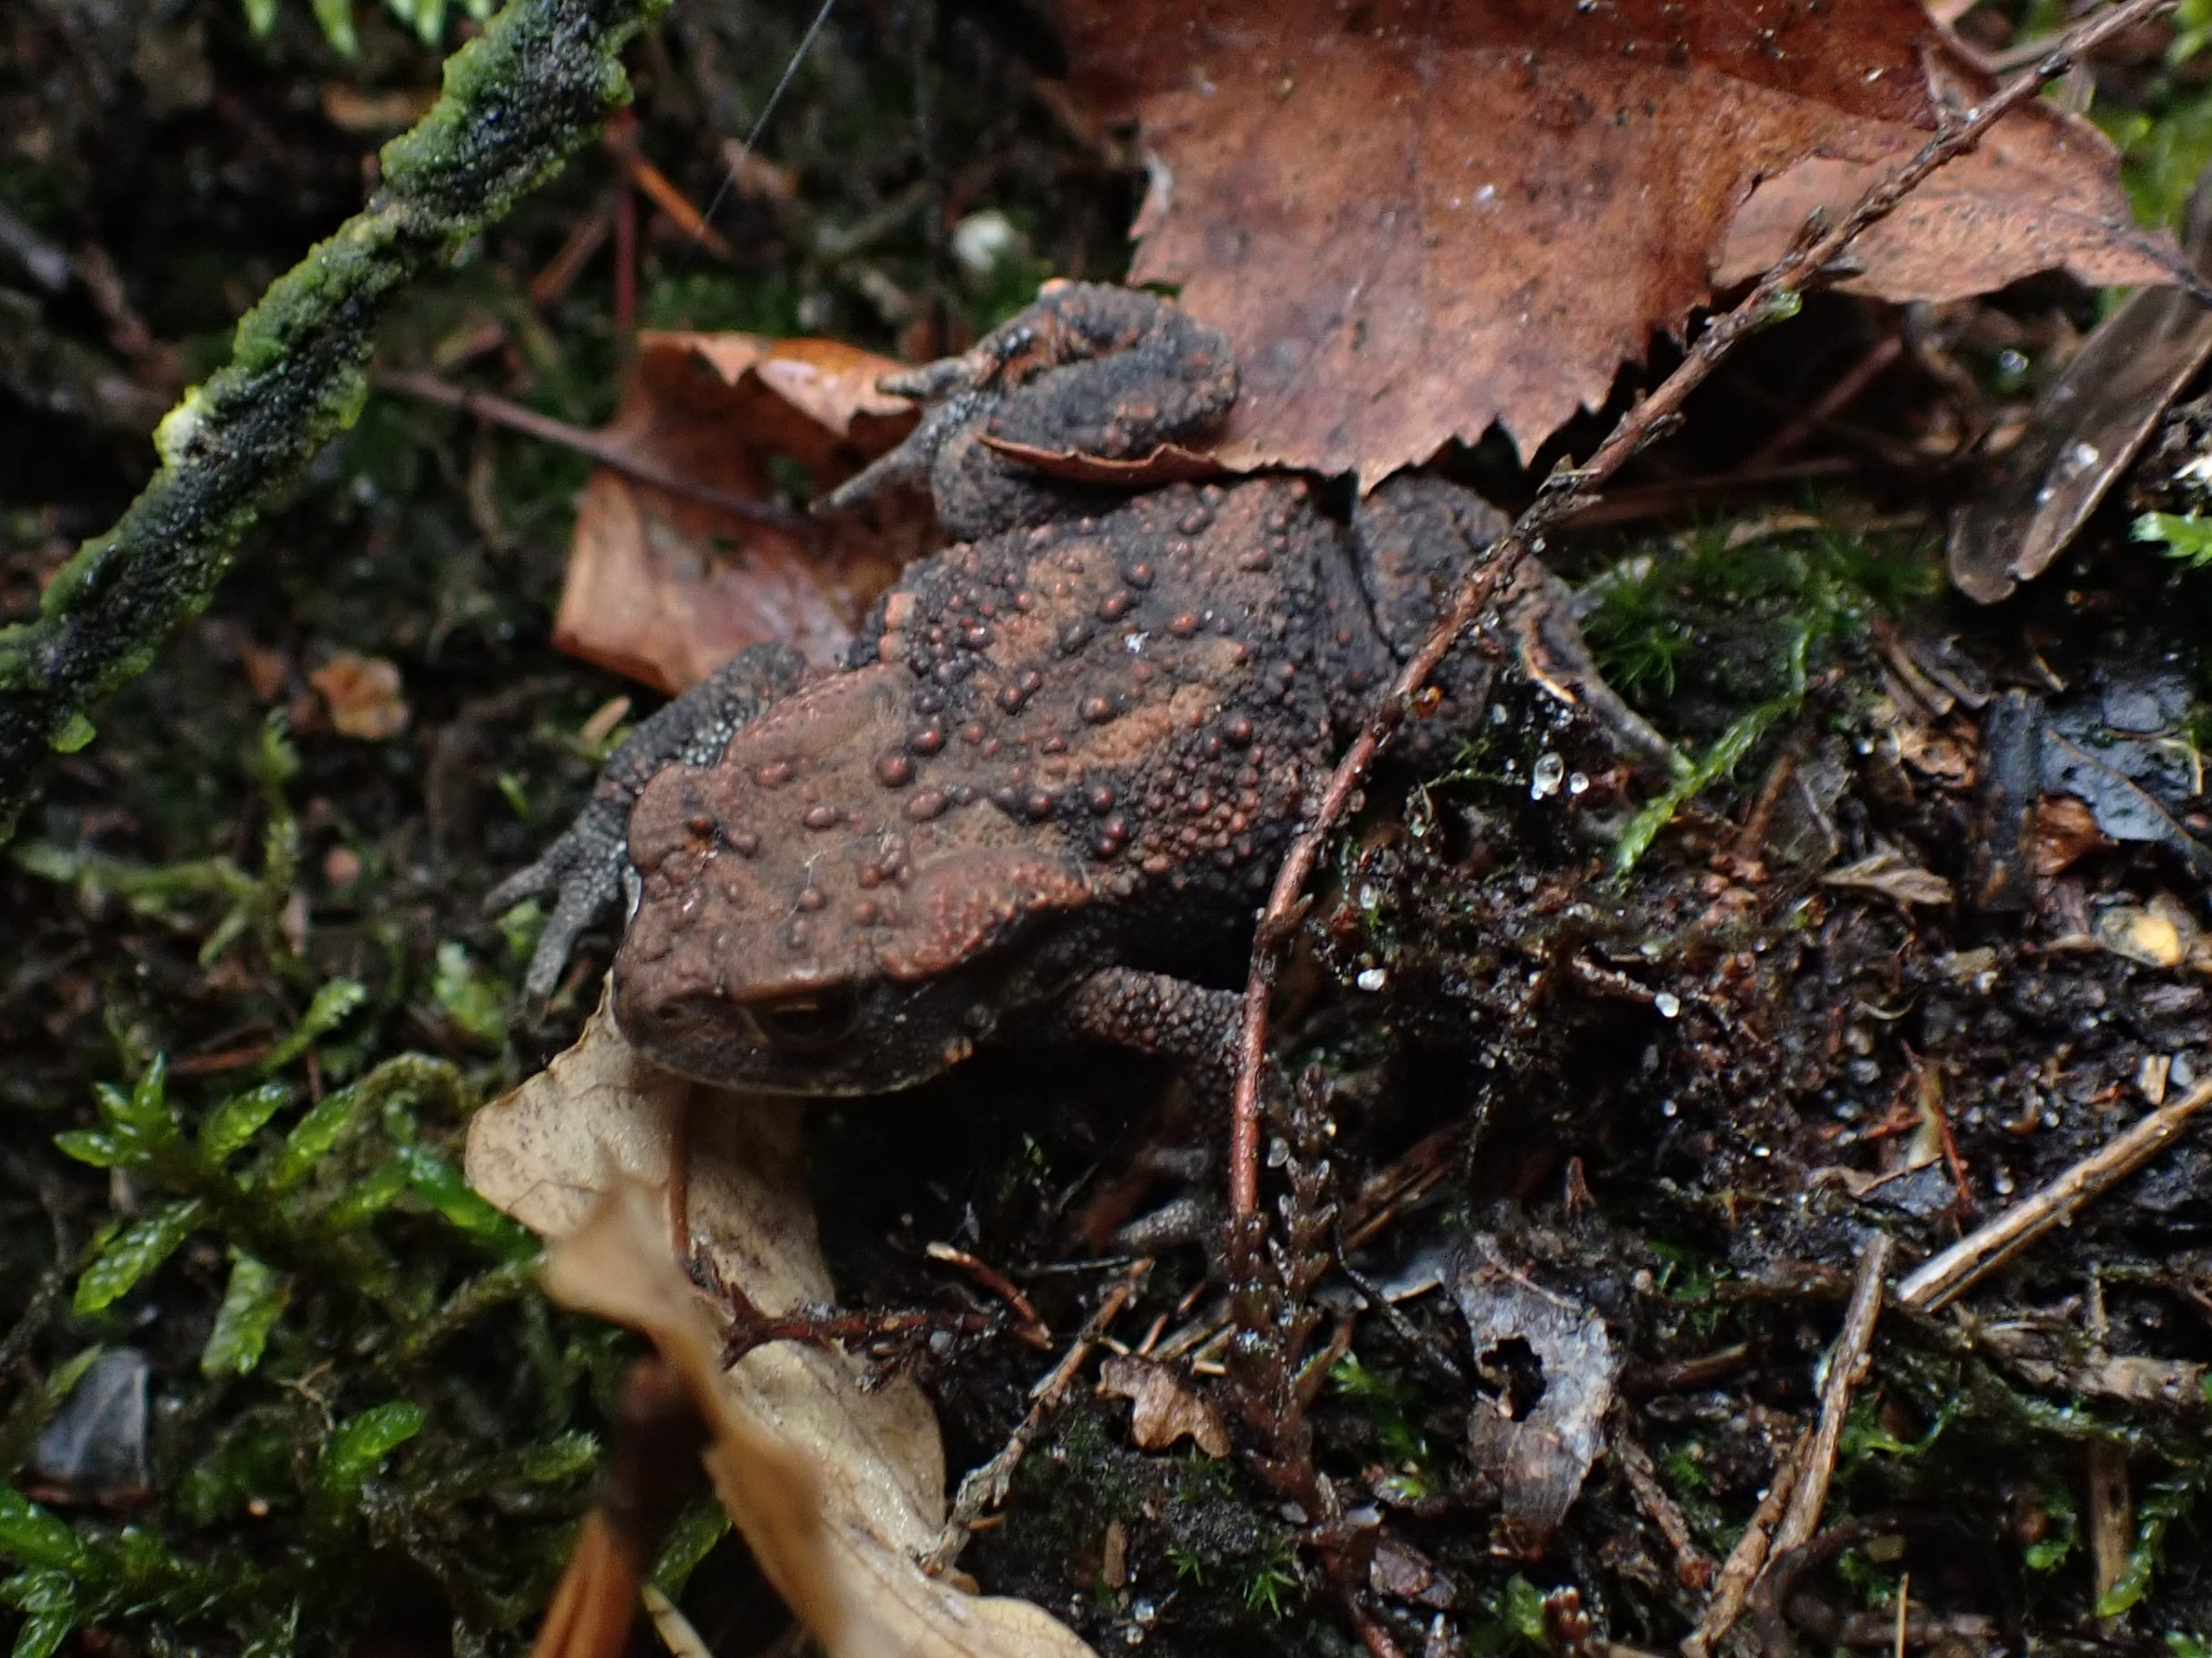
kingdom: Animalia
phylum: Chordata
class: Amphibia
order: Anura
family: Bufonidae
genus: Bufo
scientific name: Bufo bufo
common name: Skrubtudse
